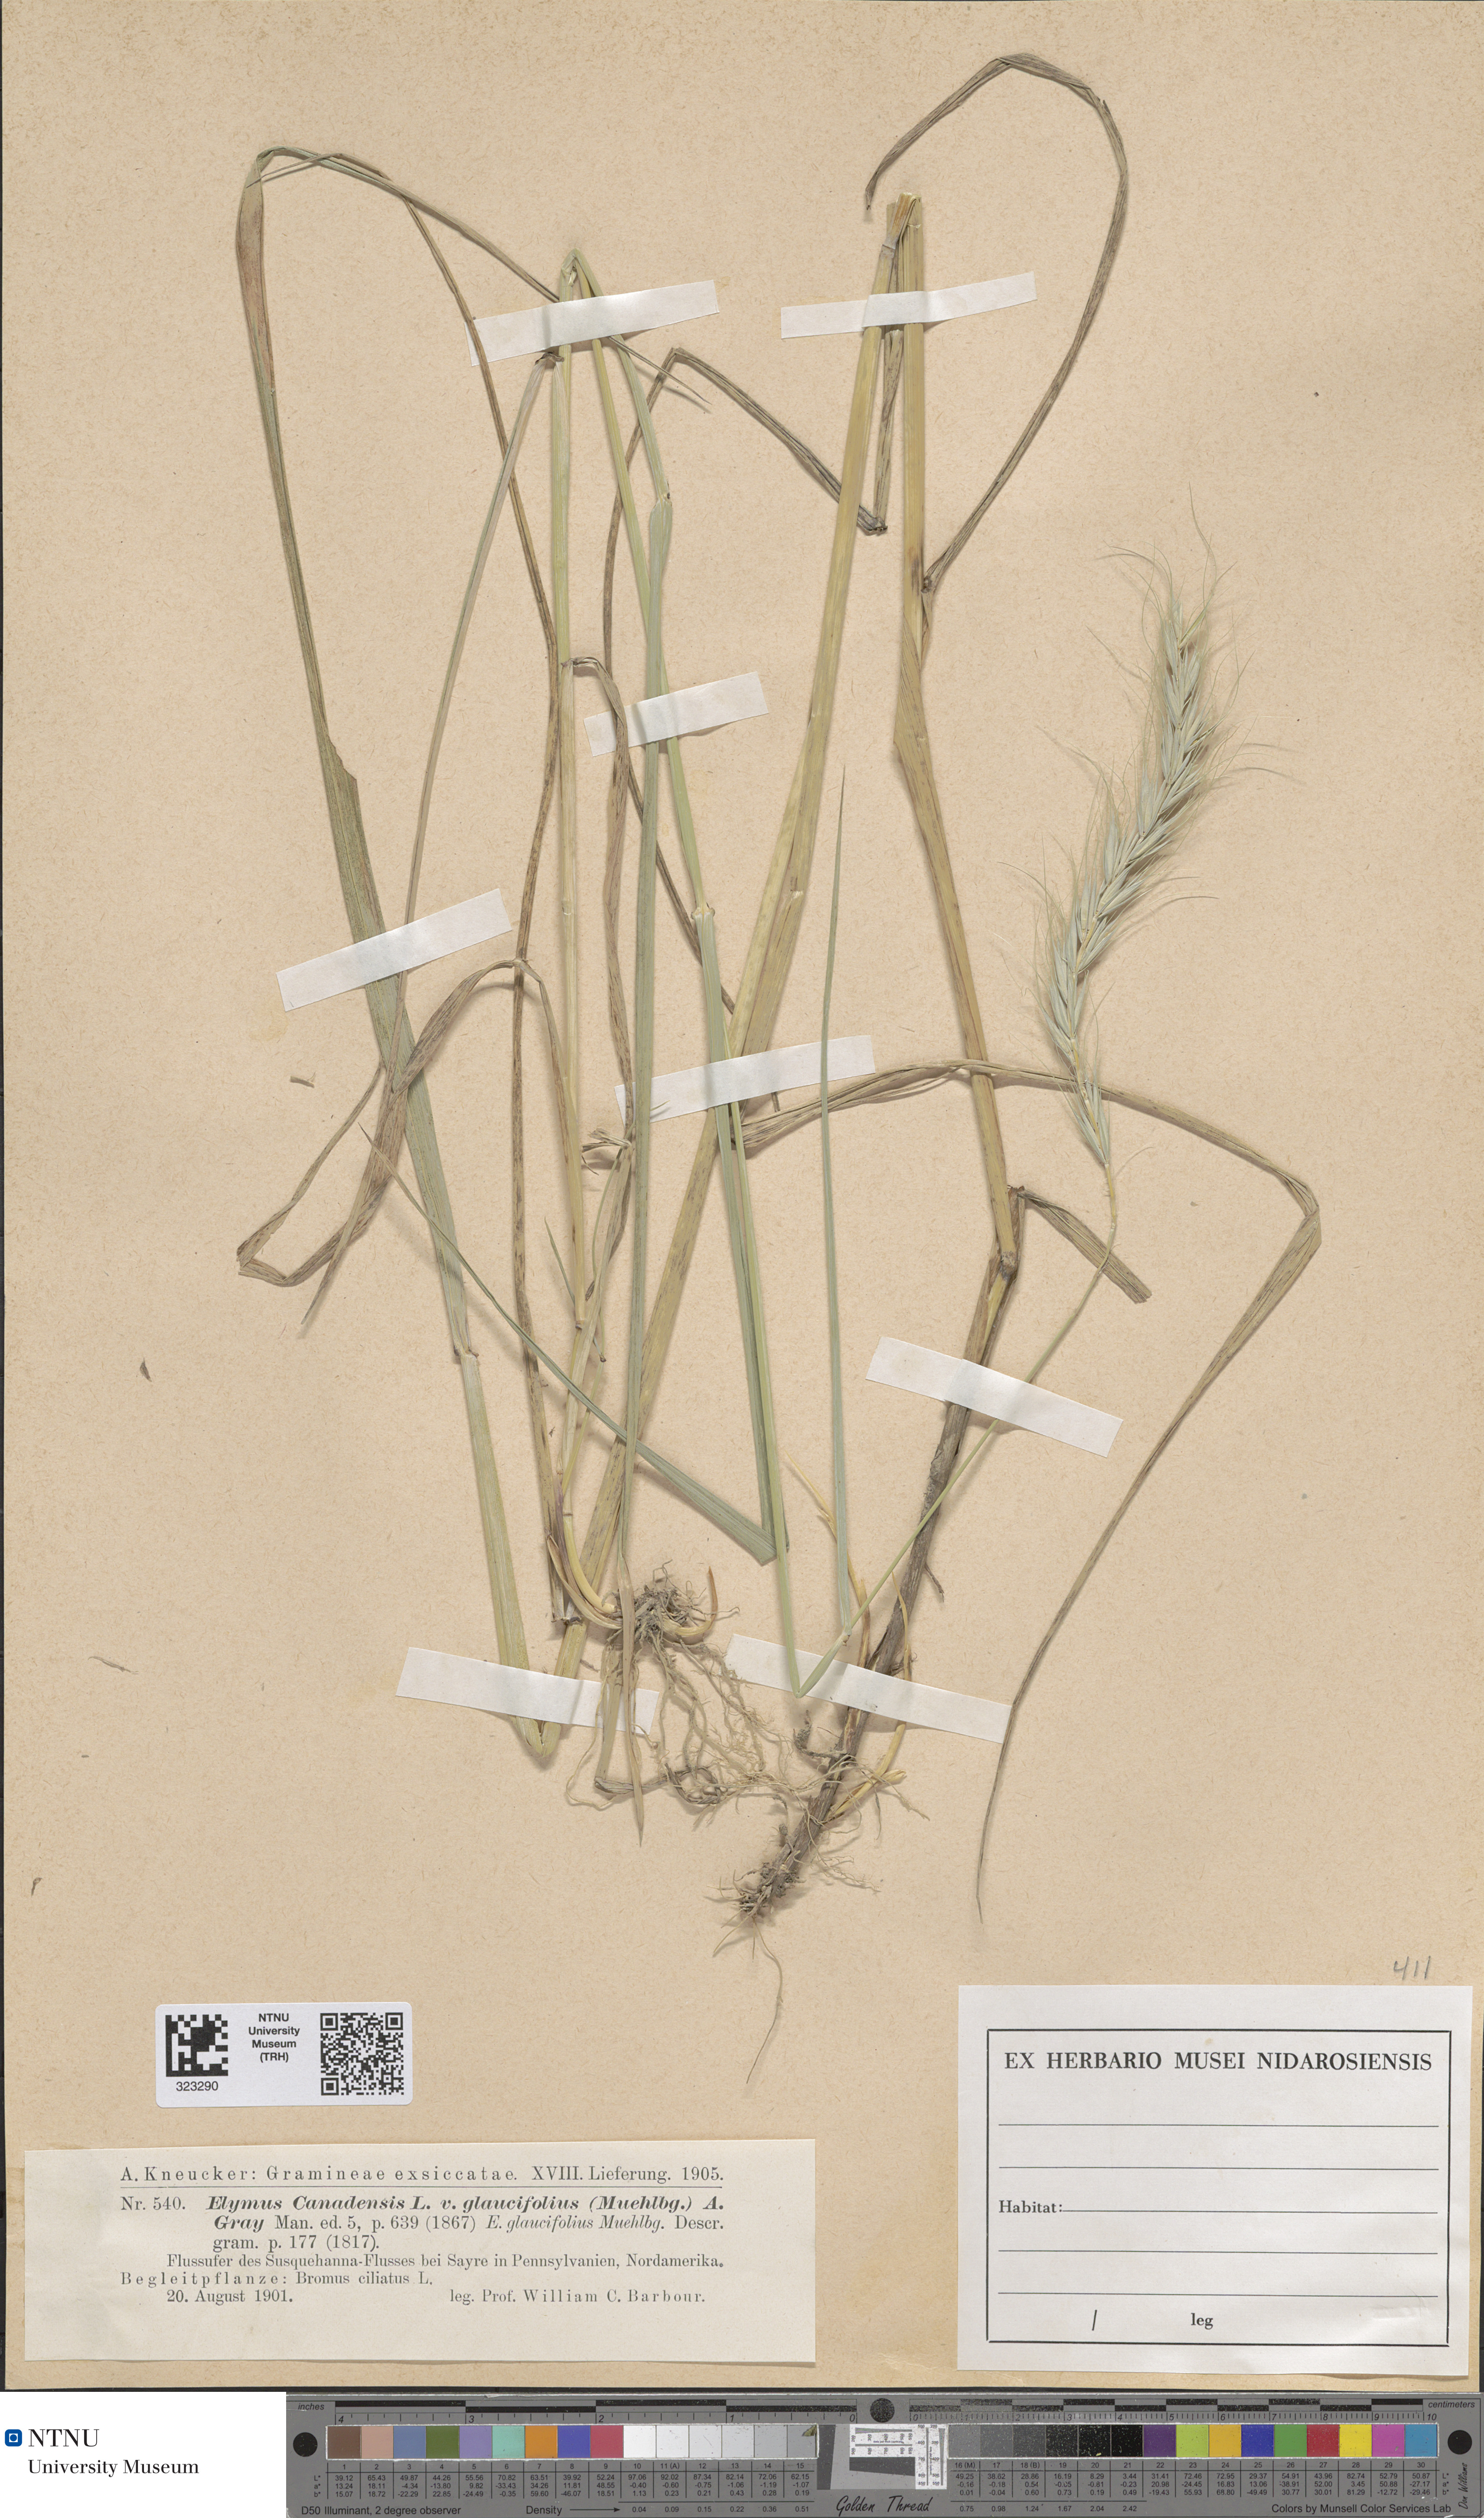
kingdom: Plantae
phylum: Tracheophyta
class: Liliopsida
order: Poales
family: Poaceae
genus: Elymus
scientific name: Elymus canadensis
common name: Canada wild rye
